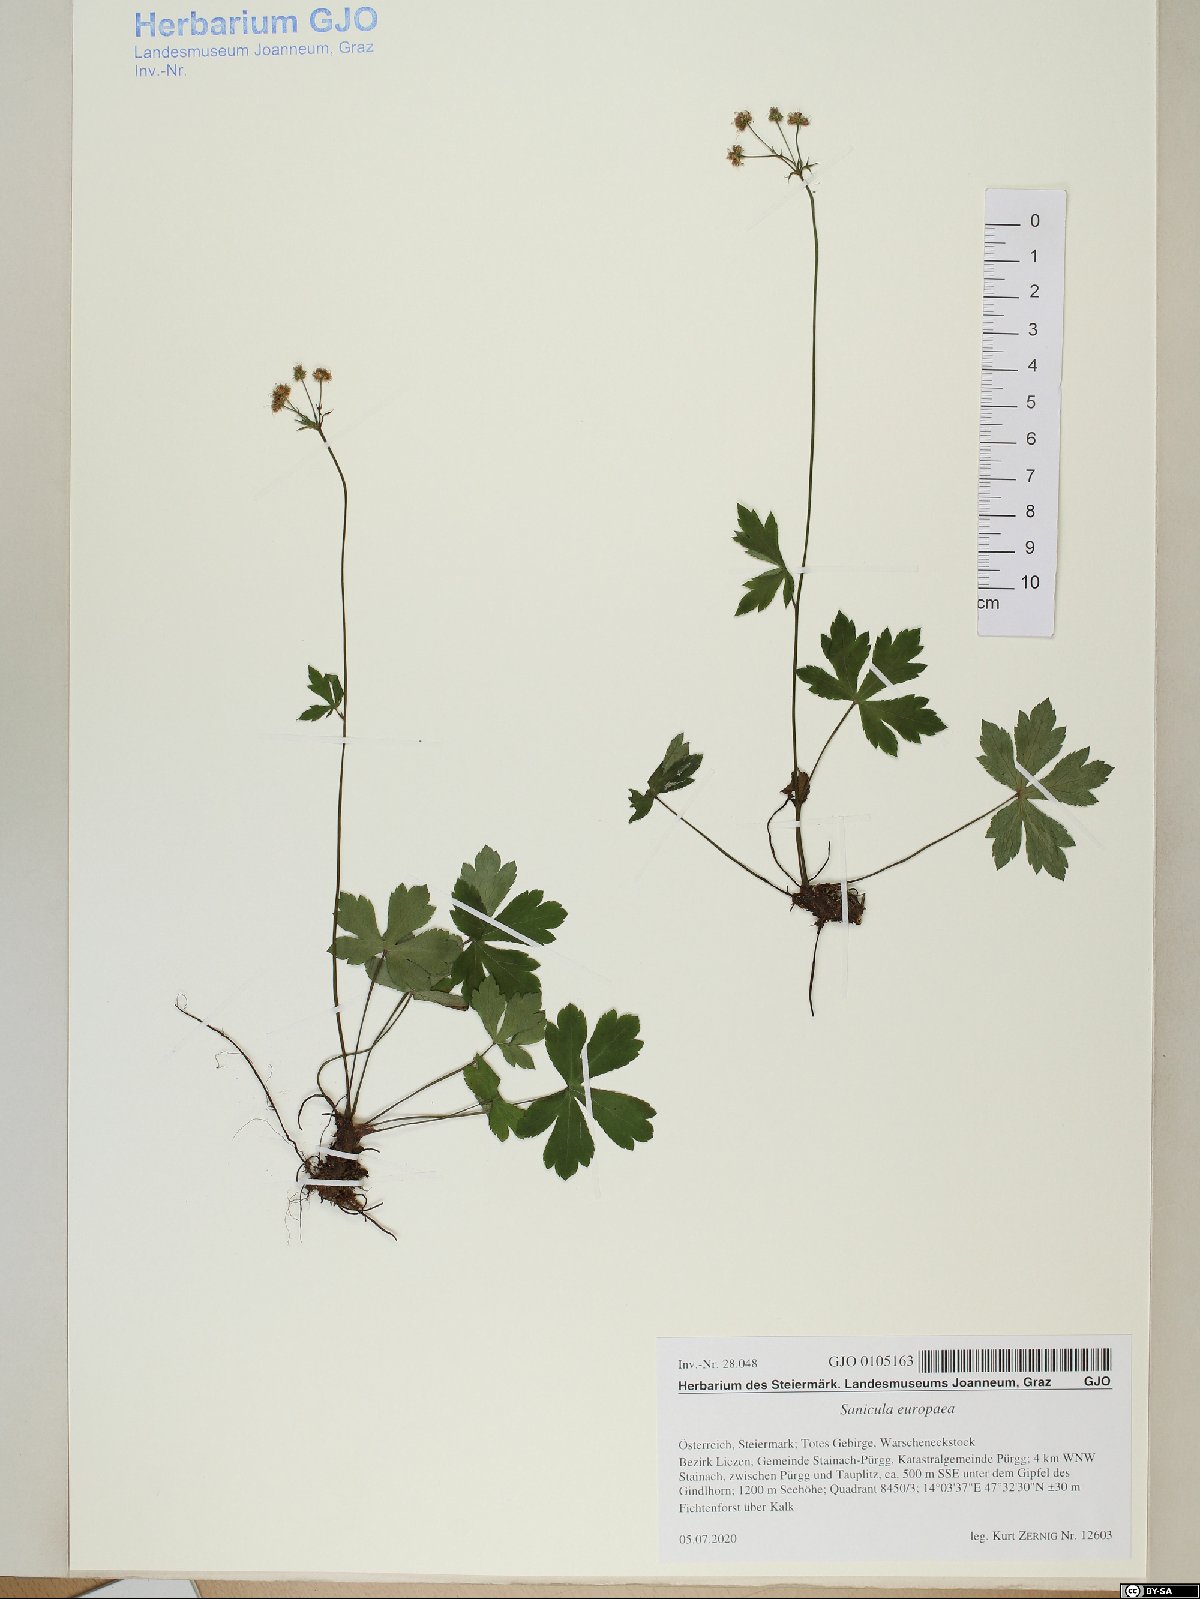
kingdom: Plantae
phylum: Tracheophyta
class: Magnoliopsida
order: Apiales
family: Apiaceae
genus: Sanicula
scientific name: Sanicula europaea
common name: Sanicle
